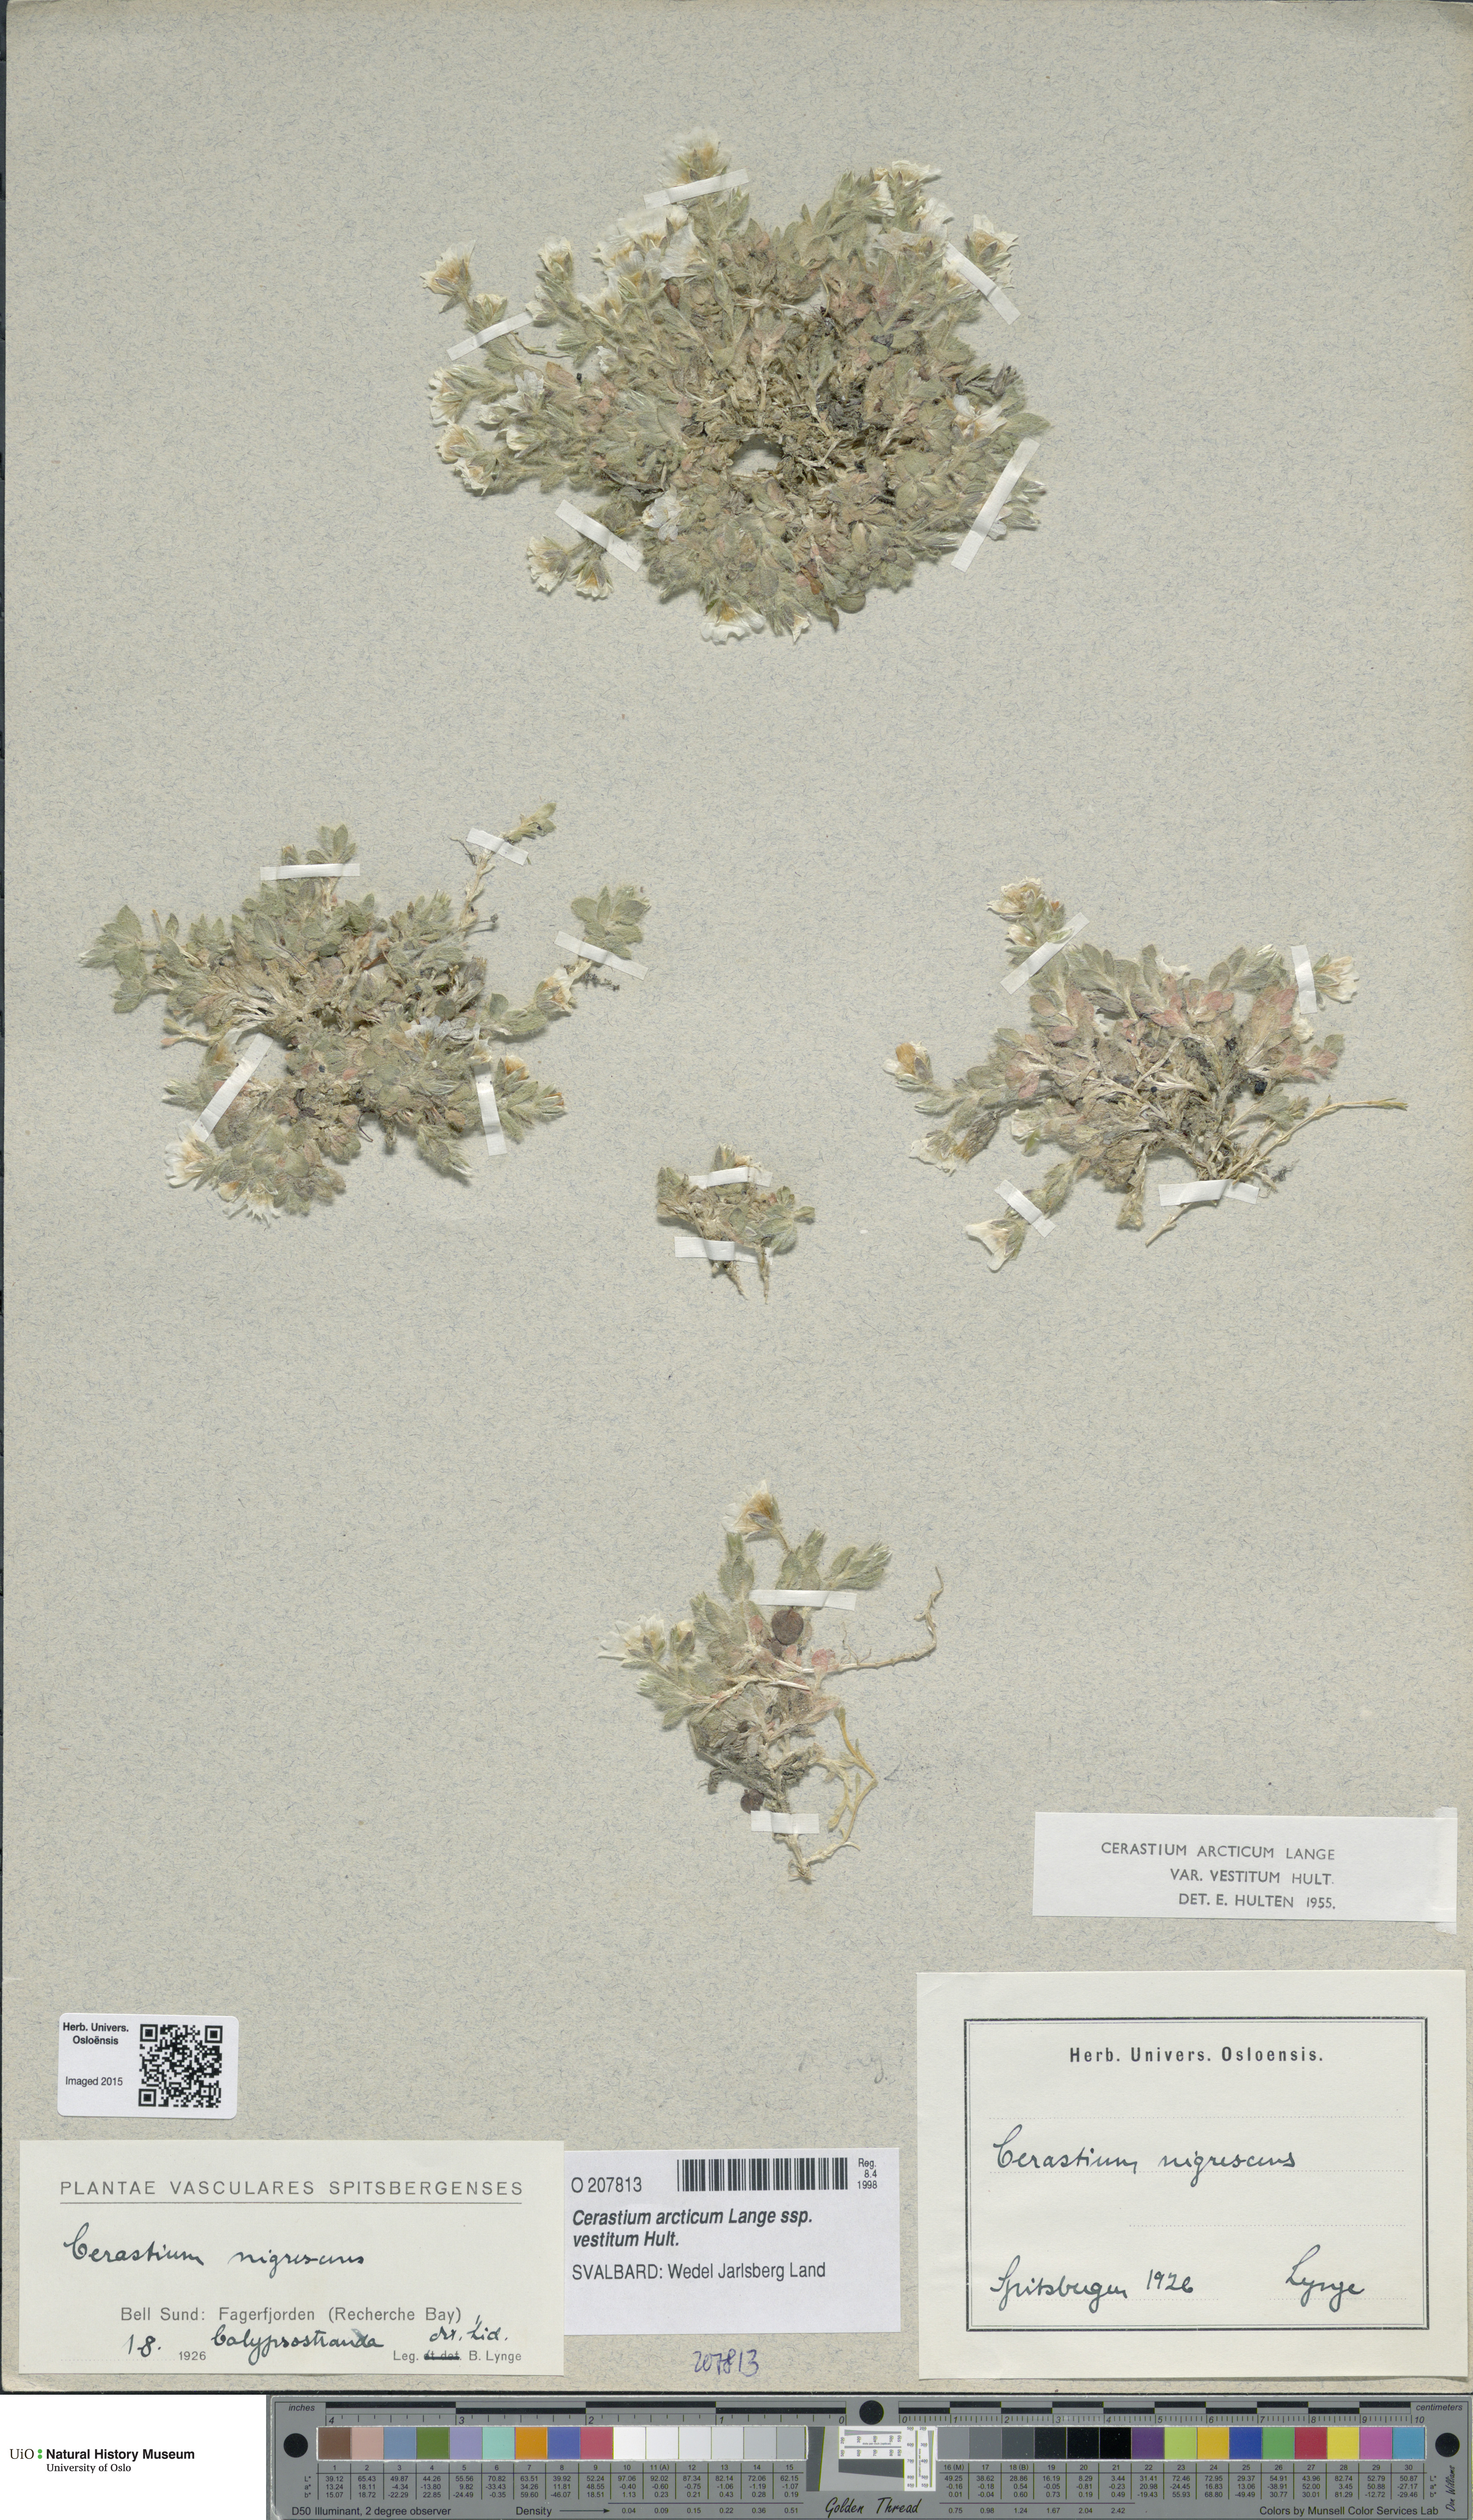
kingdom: Plantae
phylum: Tracheophyta
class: Magnoliopsida
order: Caryophyllales
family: Caryophyllaceae
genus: Cerastium
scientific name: Cerastium arcticum
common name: Arctic mouse-ear
